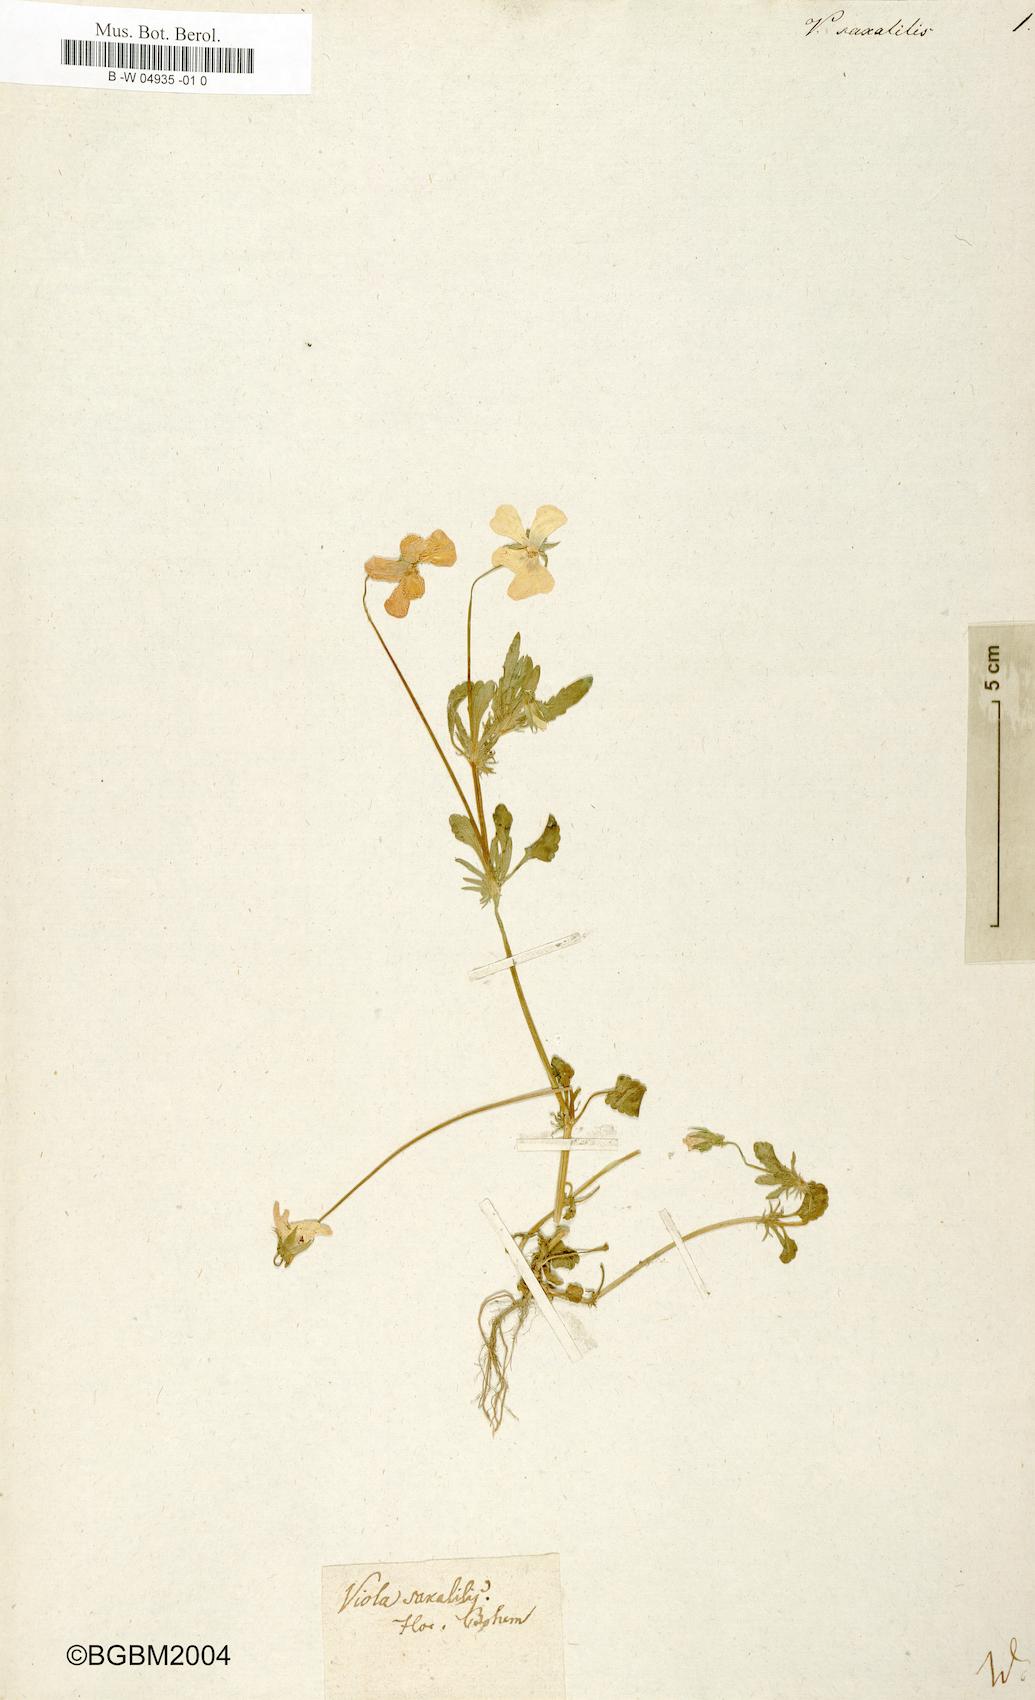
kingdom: Plantae
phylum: Tracheophyta
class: Magnoliopsida
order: Malpighiales
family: Violaceae
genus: Viola
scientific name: Viola saxatilis
